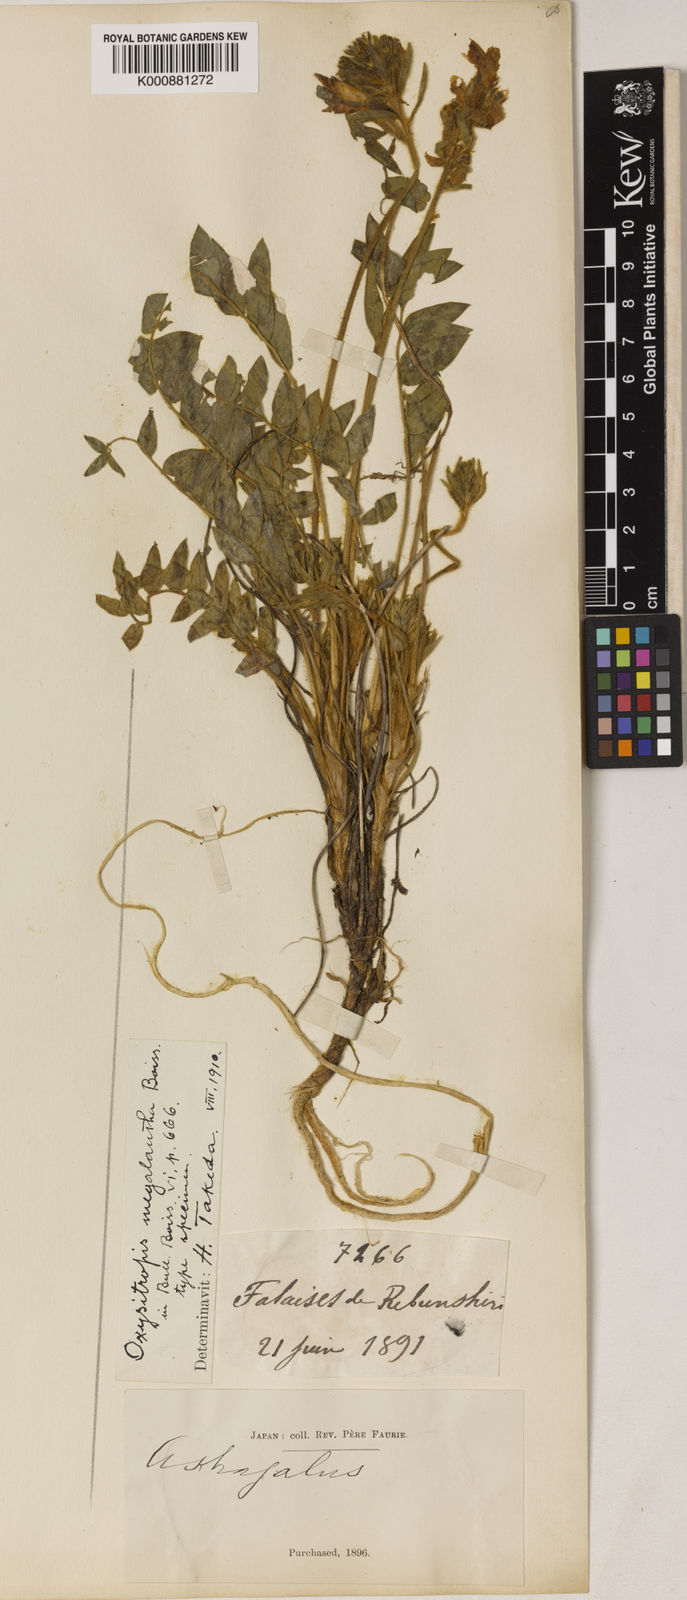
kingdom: Plantae
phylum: Tracheophyta
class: Magnoliopsida
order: Fabales
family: Fabaceae
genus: Oxytropis
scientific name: Oxytropis megalantha
